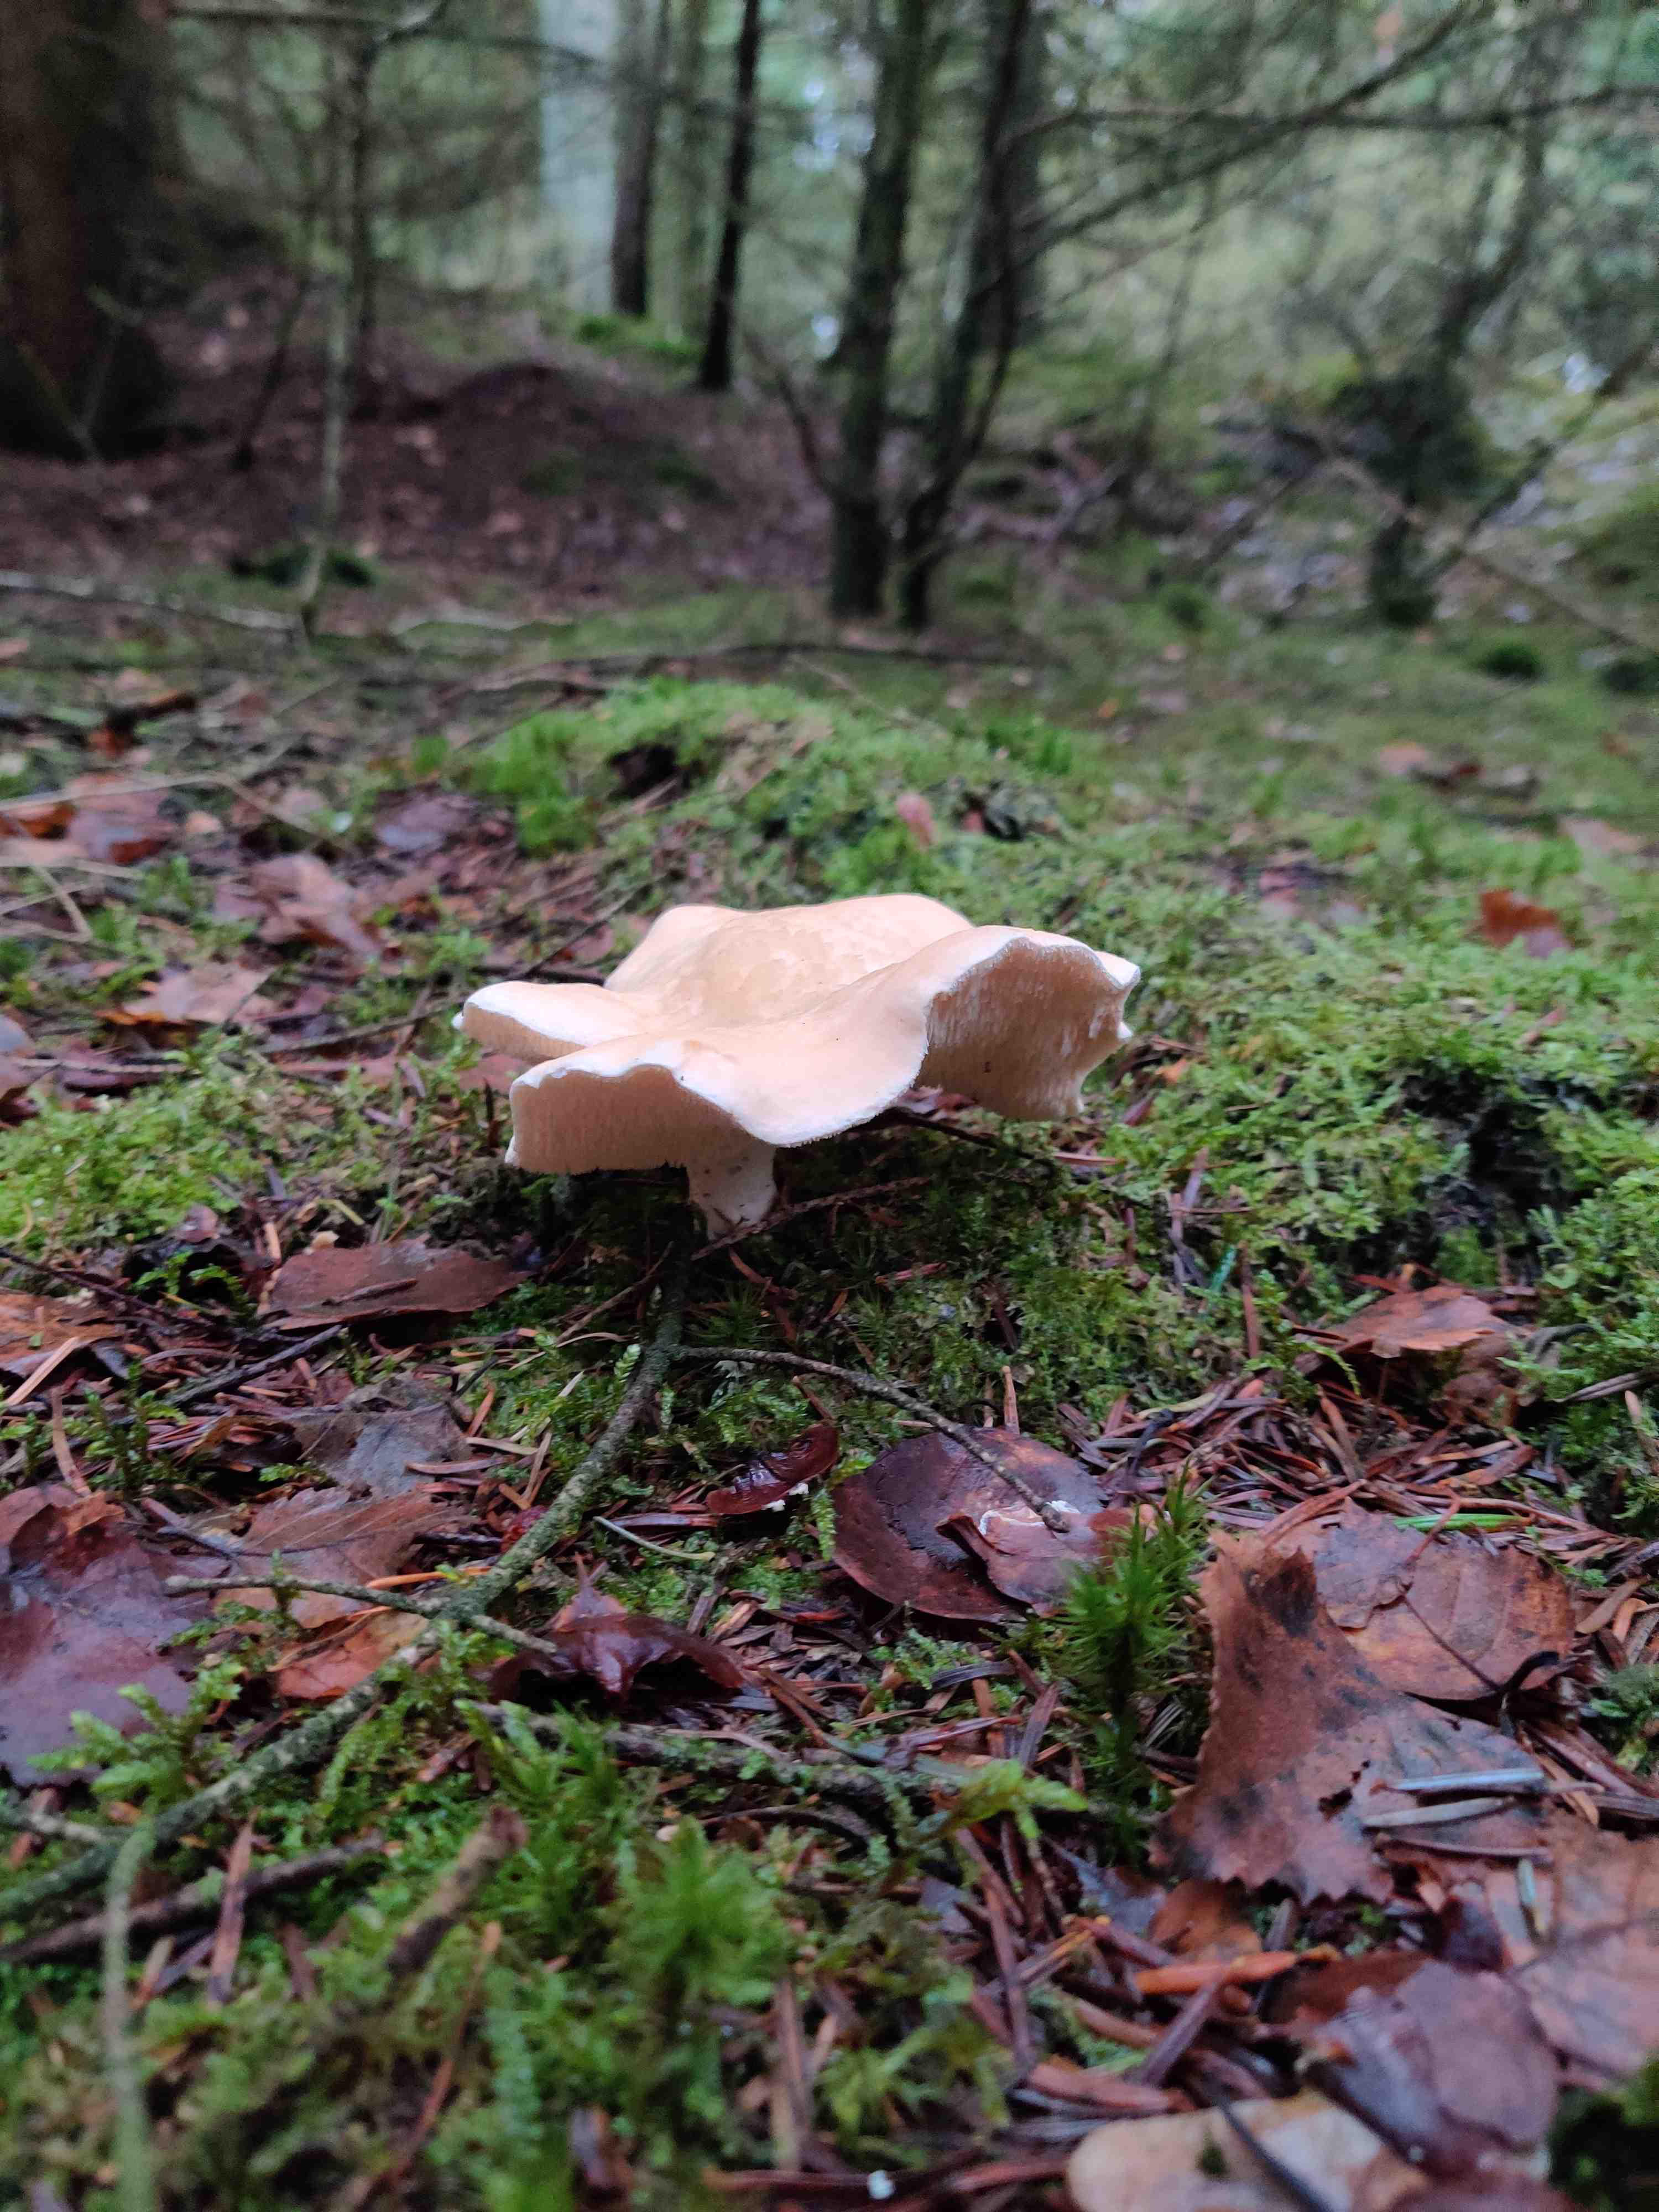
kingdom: Fungi
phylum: Basidiomycota
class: Agaricomycetes
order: Cantharellales
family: Hydnaceae
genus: Hydnum
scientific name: Hydnum
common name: pigsvamp
